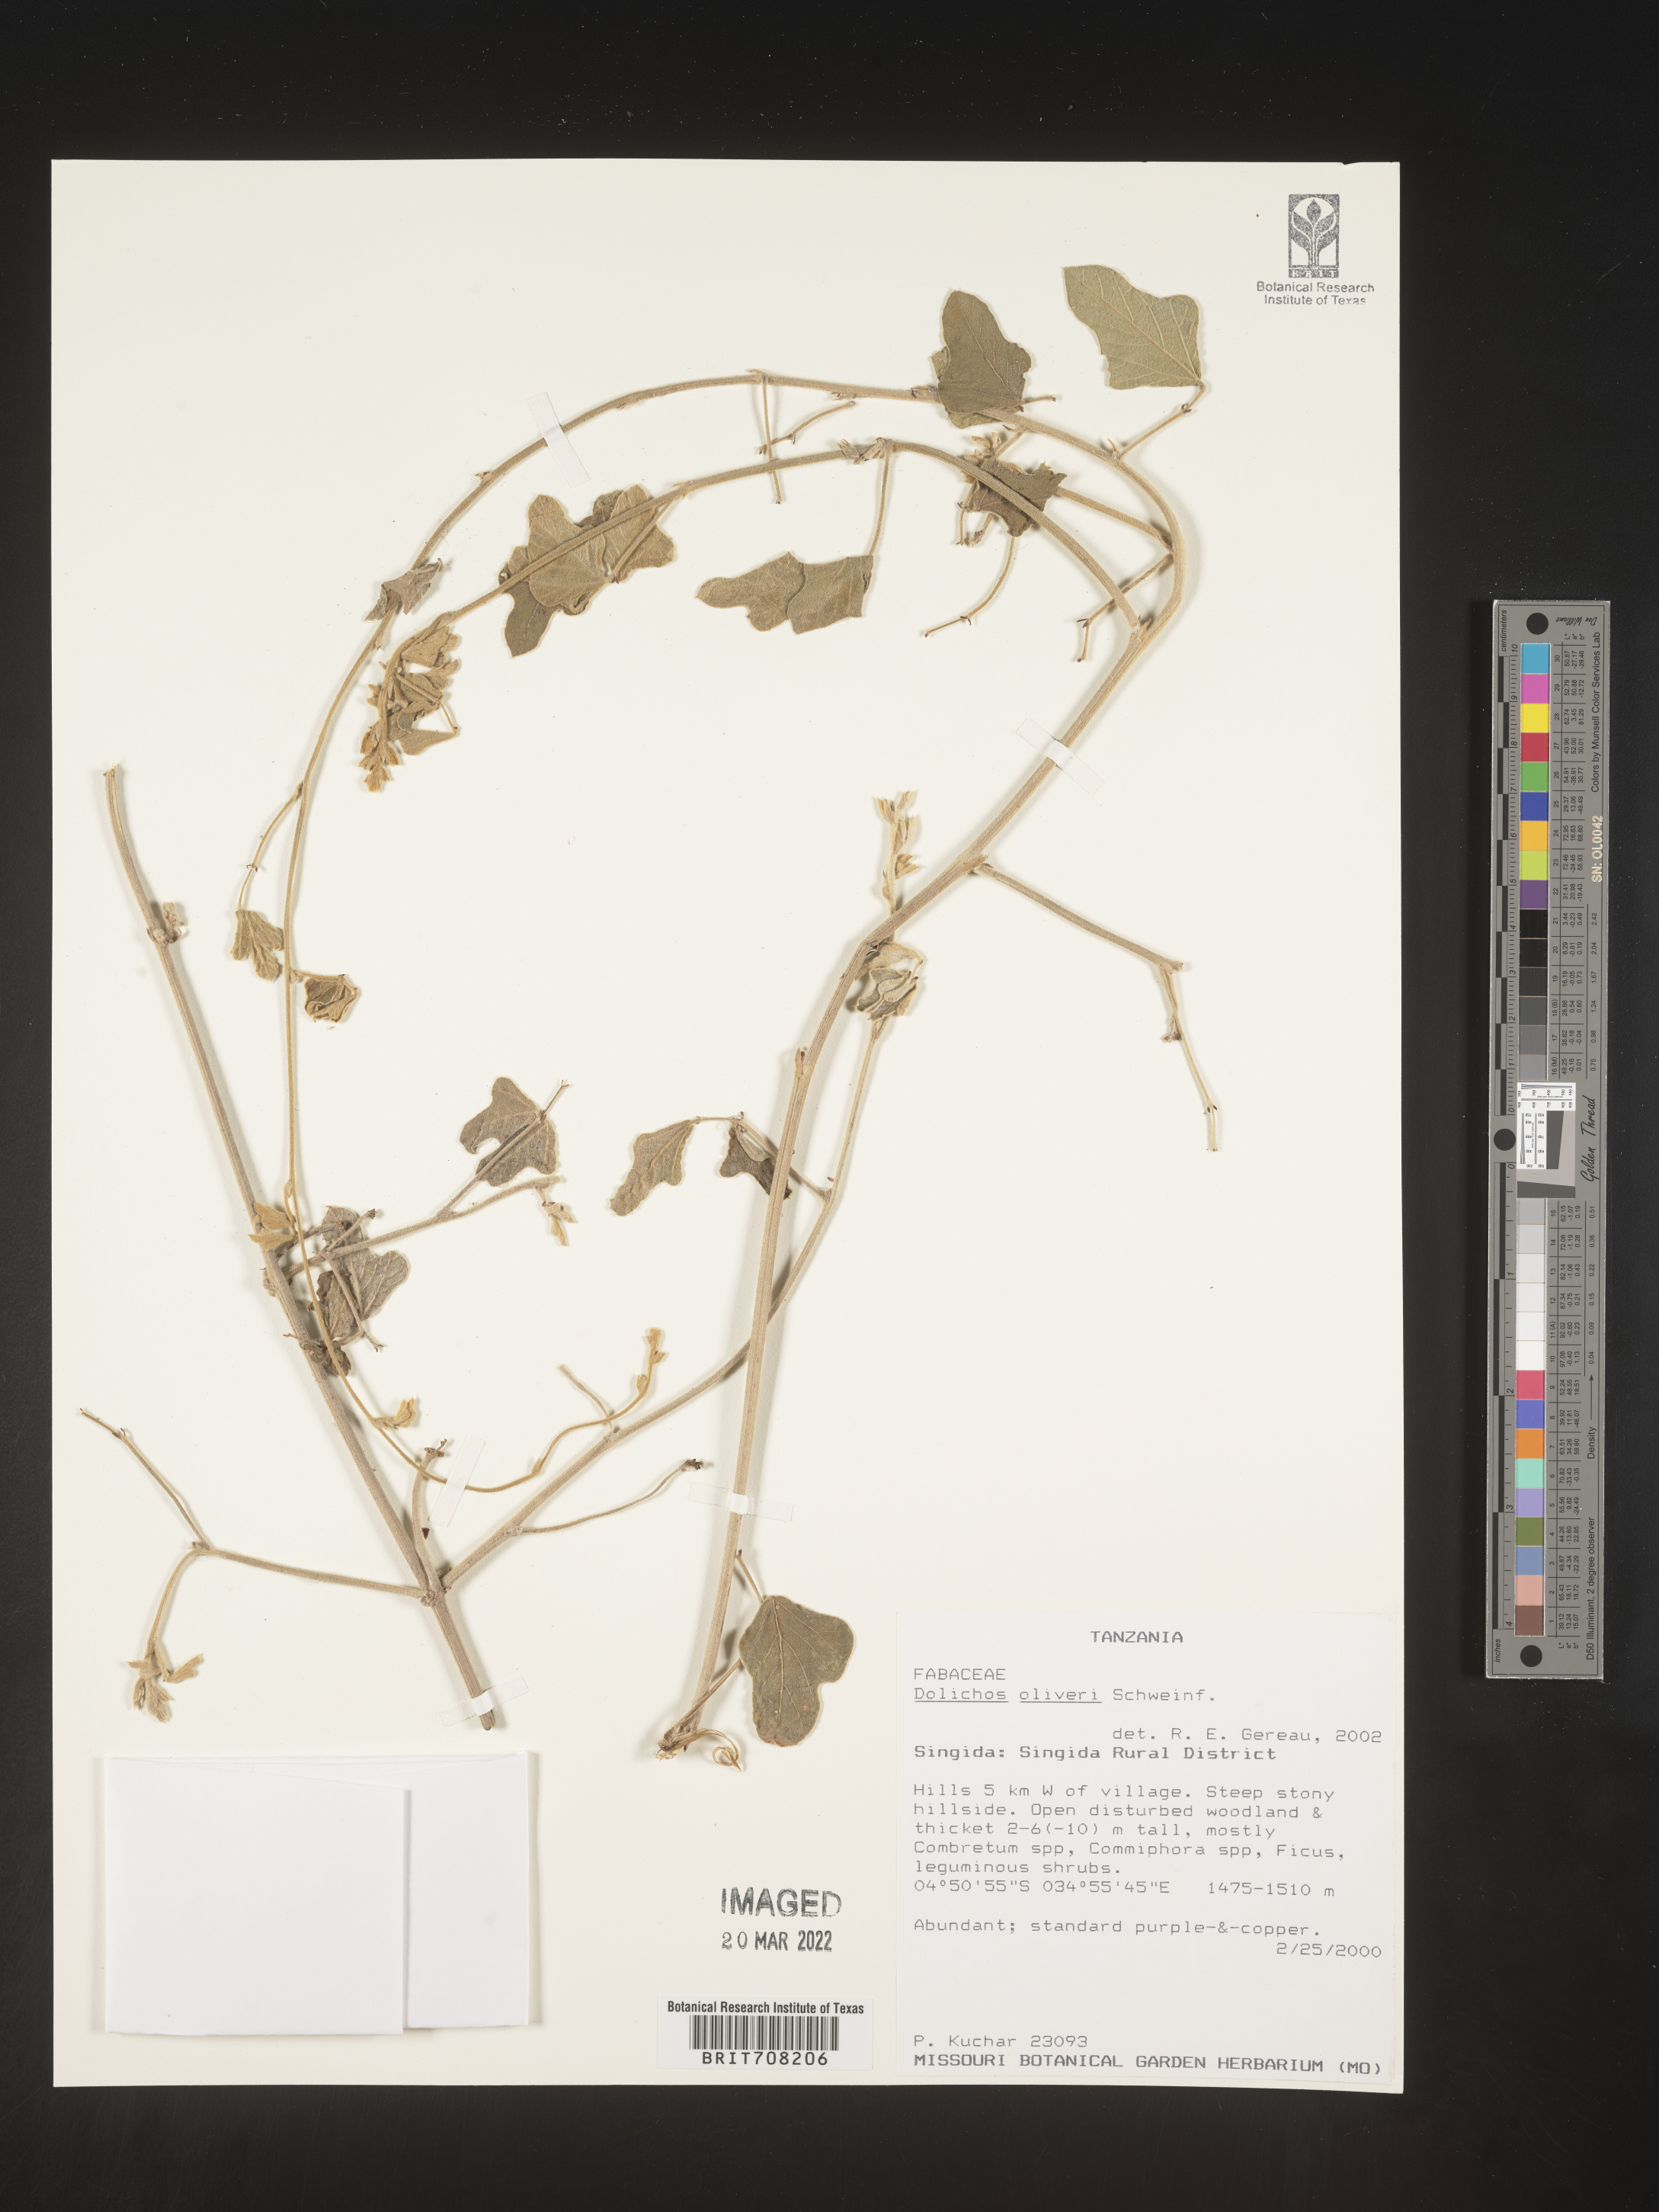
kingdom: Plantae
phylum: Tracheophyta
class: Magnoliopsida
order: Fabales
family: Fabaceae
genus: Dolichos
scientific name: Dolichos
